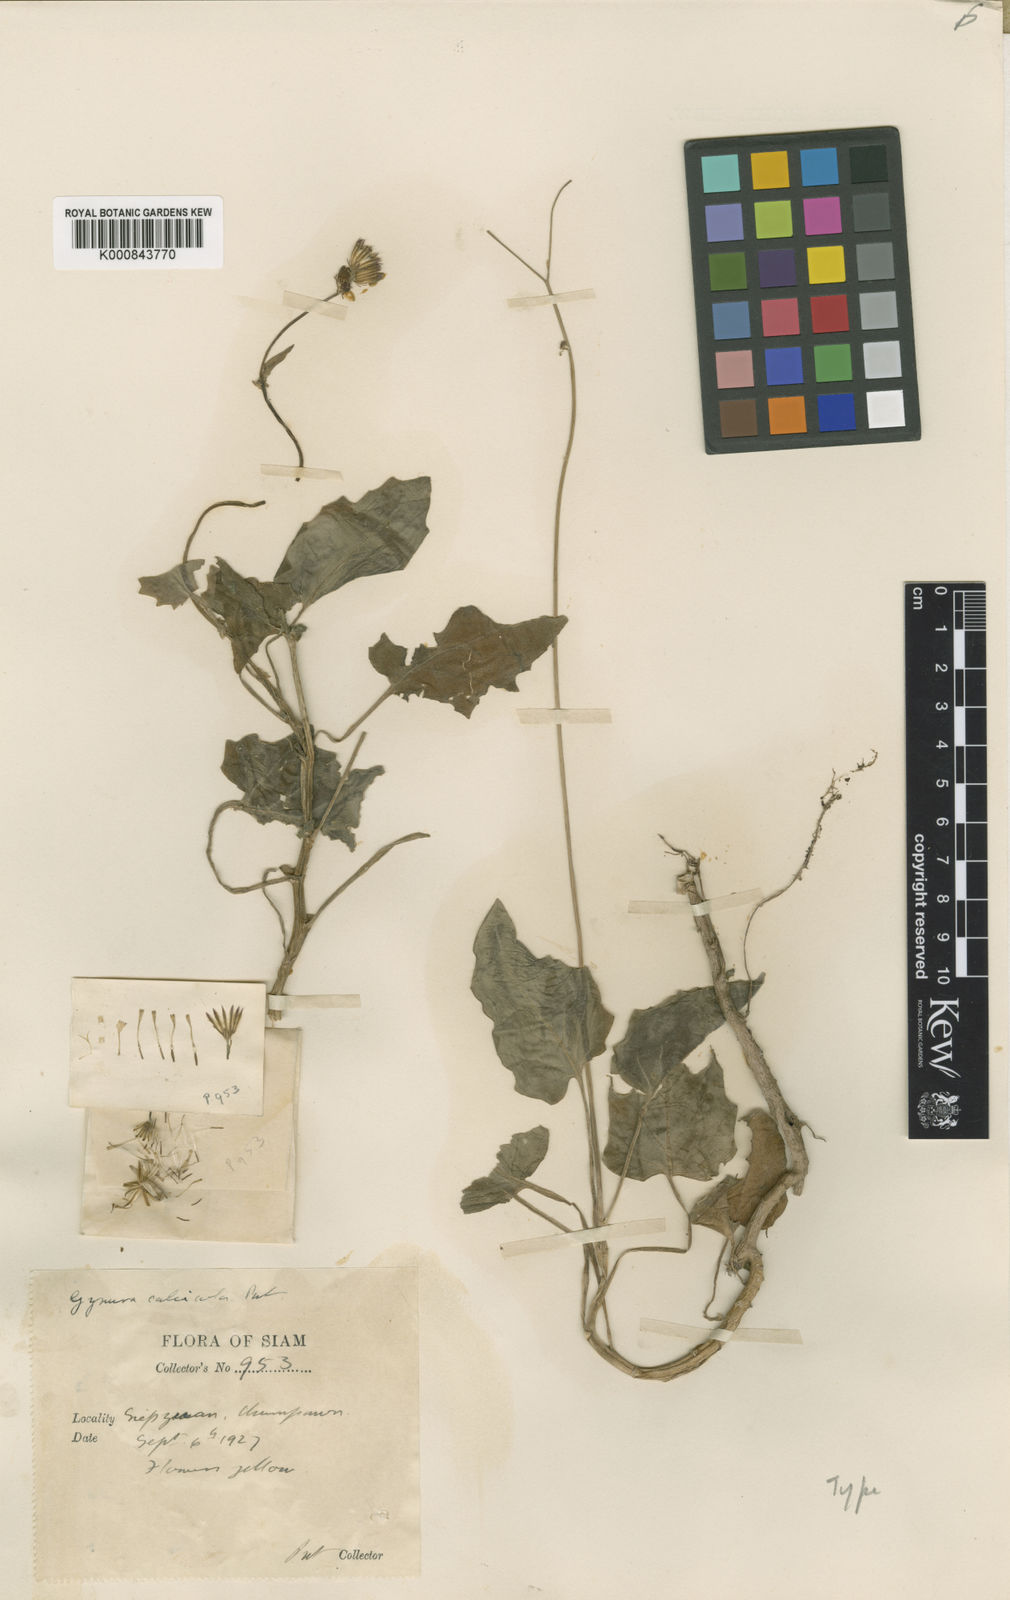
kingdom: Plantae
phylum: Tracheophyta
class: Magnoliopsida
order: Asterales
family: Asteraceae
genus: Gynura
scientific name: Gynura calciphila
